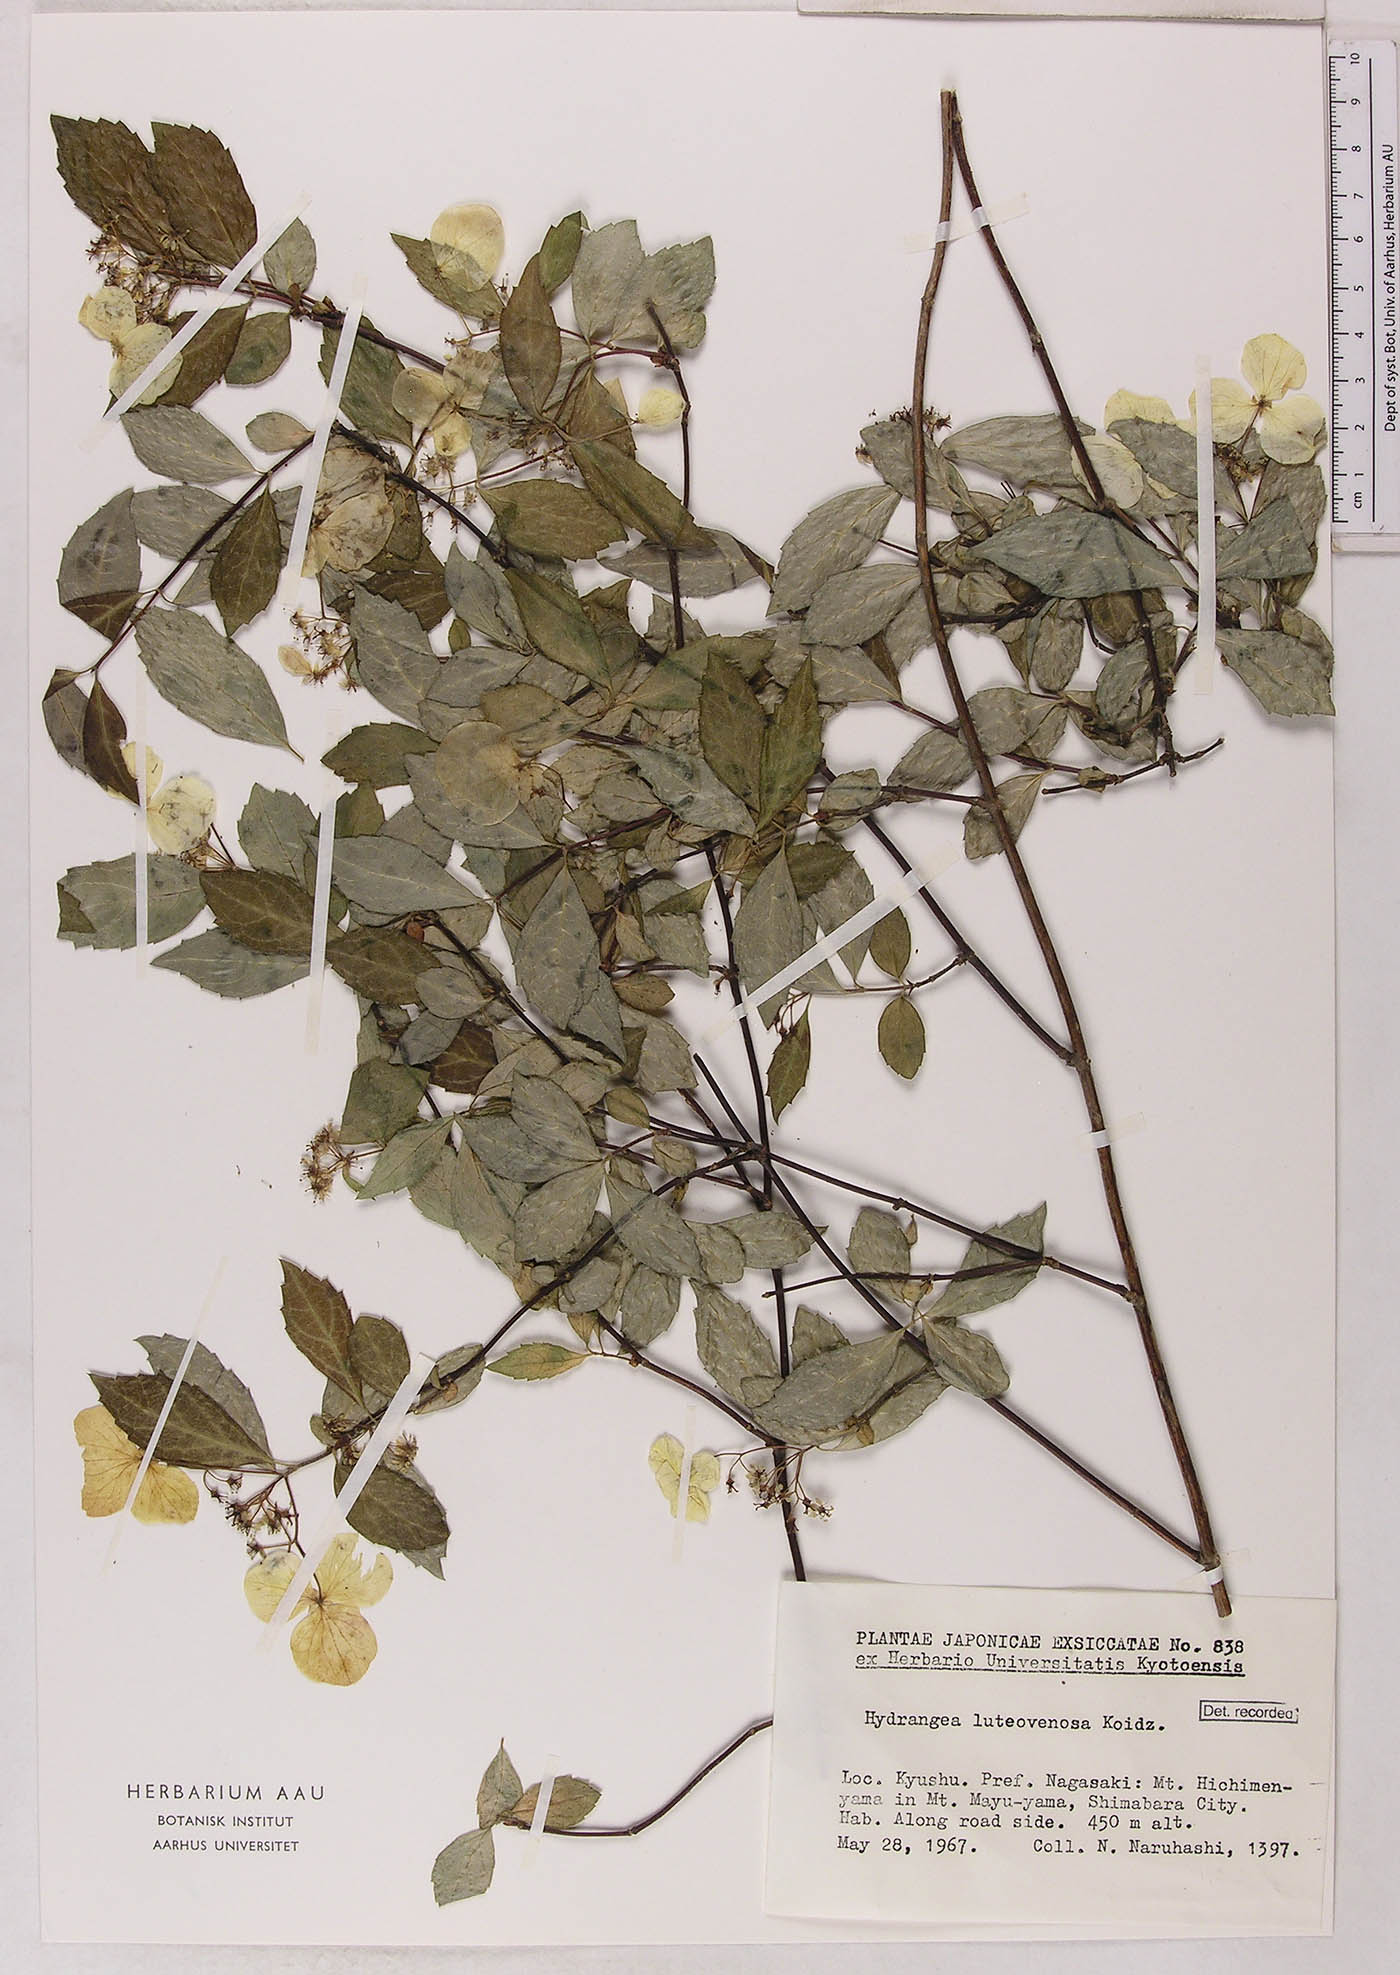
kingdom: Plantae
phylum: Tracheophyta
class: Magnoliopsida
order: Cornales
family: Hydrangeaceae
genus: Hydrangea
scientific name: Hydrangea luteovenosa
